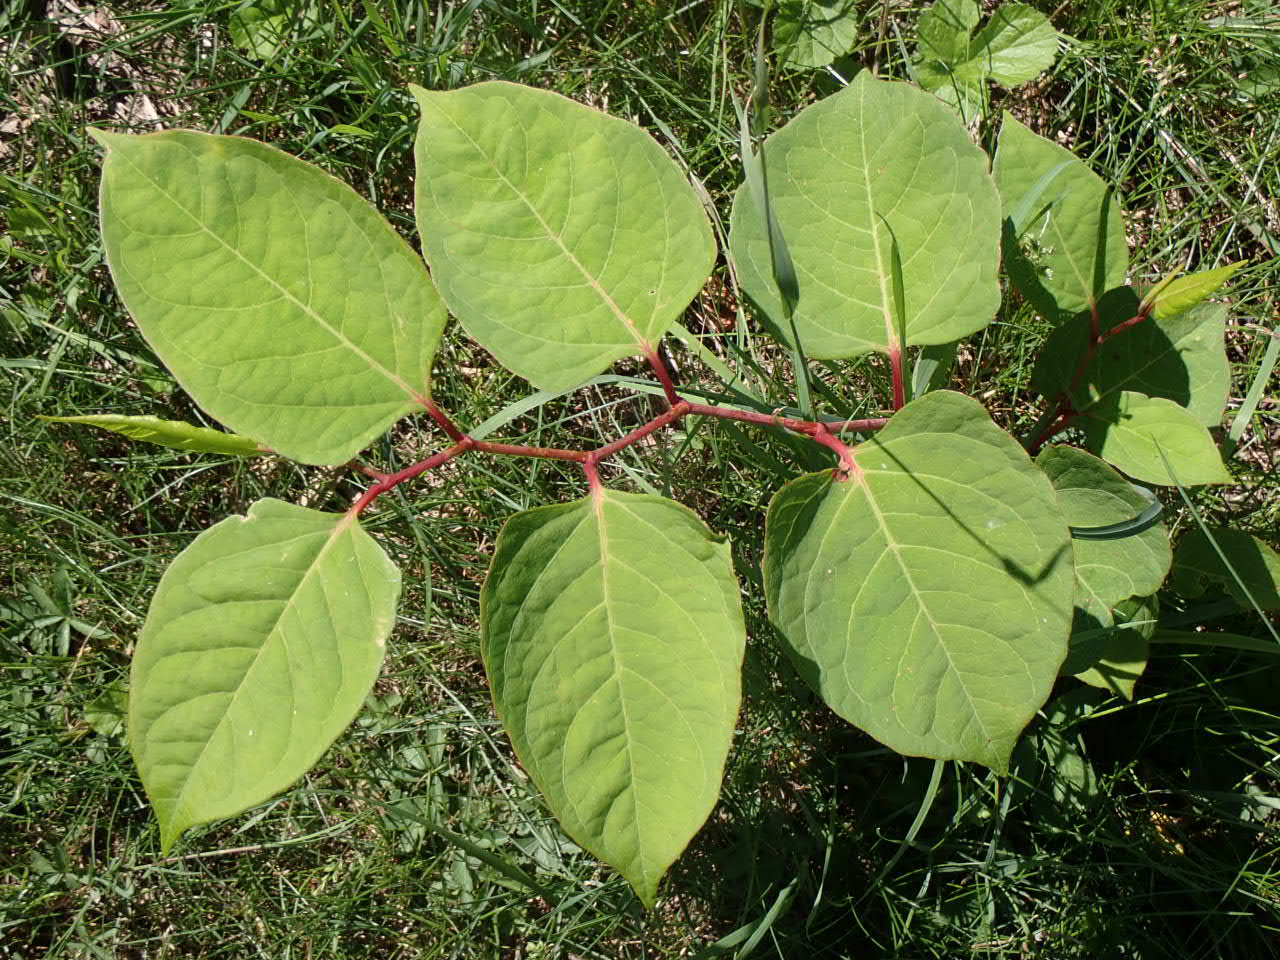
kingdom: Plantae
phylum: Tracheophyta
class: Magnoliopsida
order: Caryophyllales
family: Polygonaceae
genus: Reynoutria
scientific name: Reynoutria japonica
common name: Japan-pileurt
